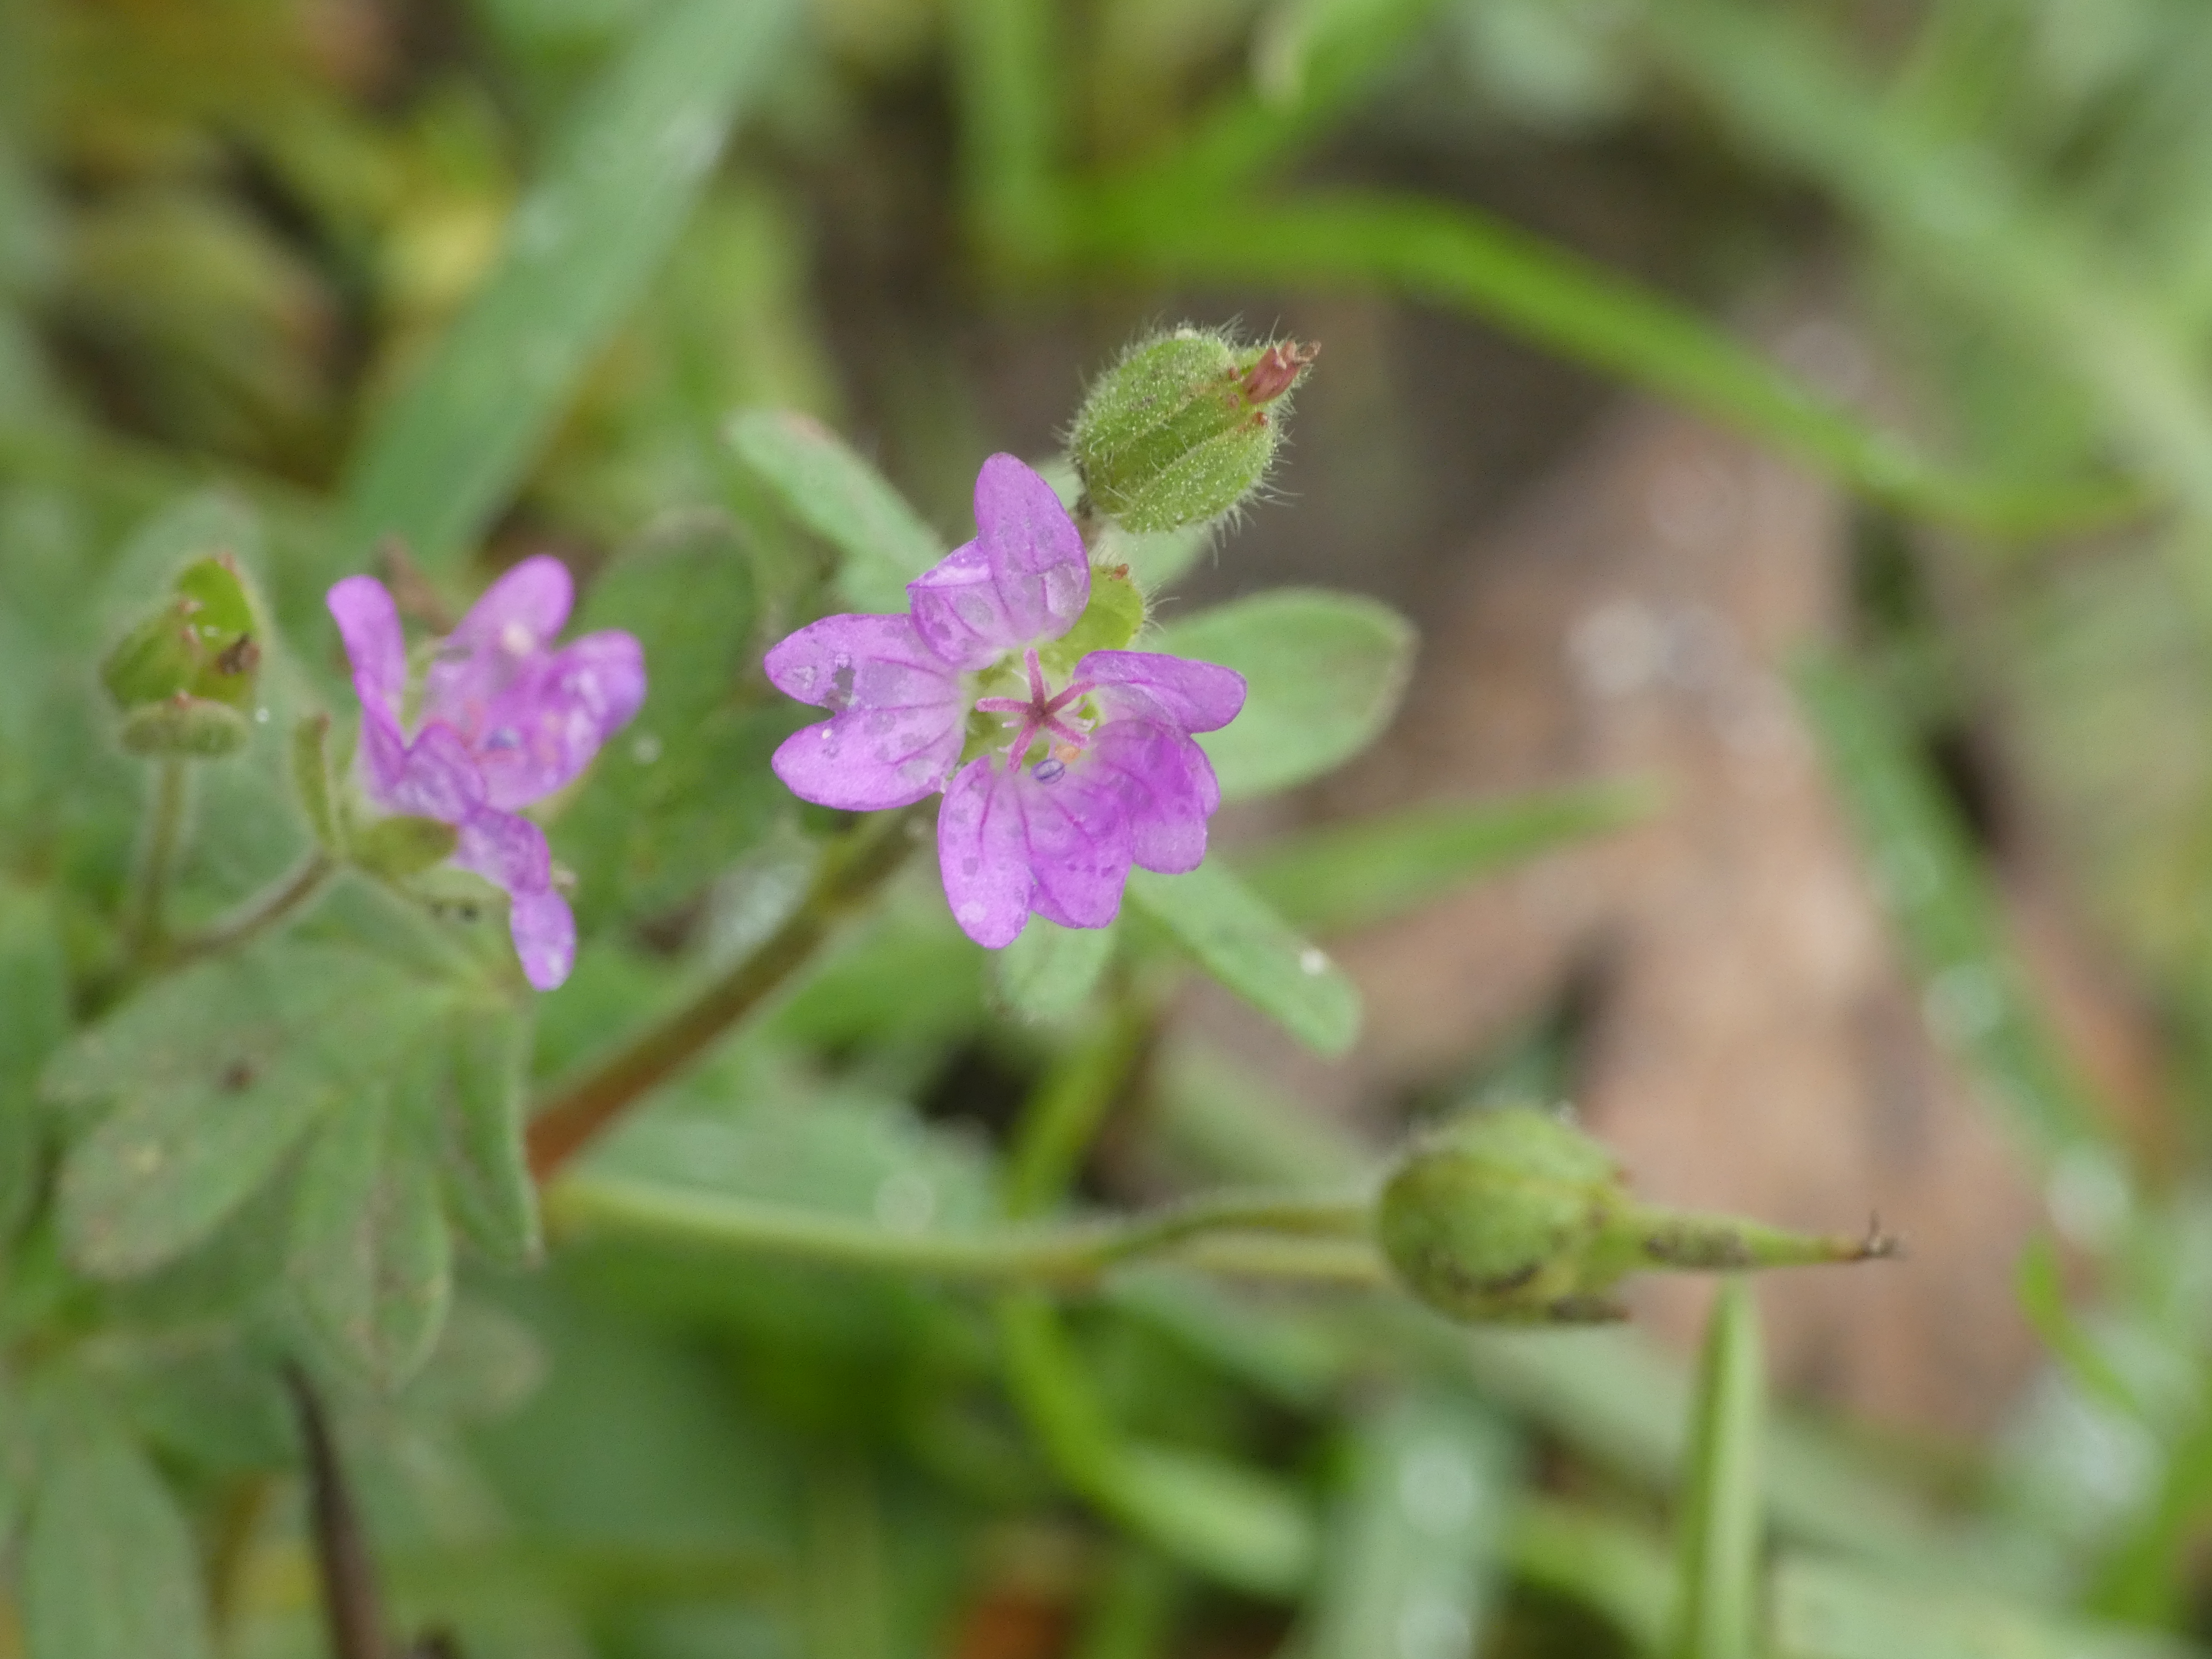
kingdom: Plantae
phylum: Tracheophyta
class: Magnoliopsida
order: Geraniales
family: Geraniaceae
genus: Geranium
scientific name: Geranium molle
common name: Blød storkenæb
